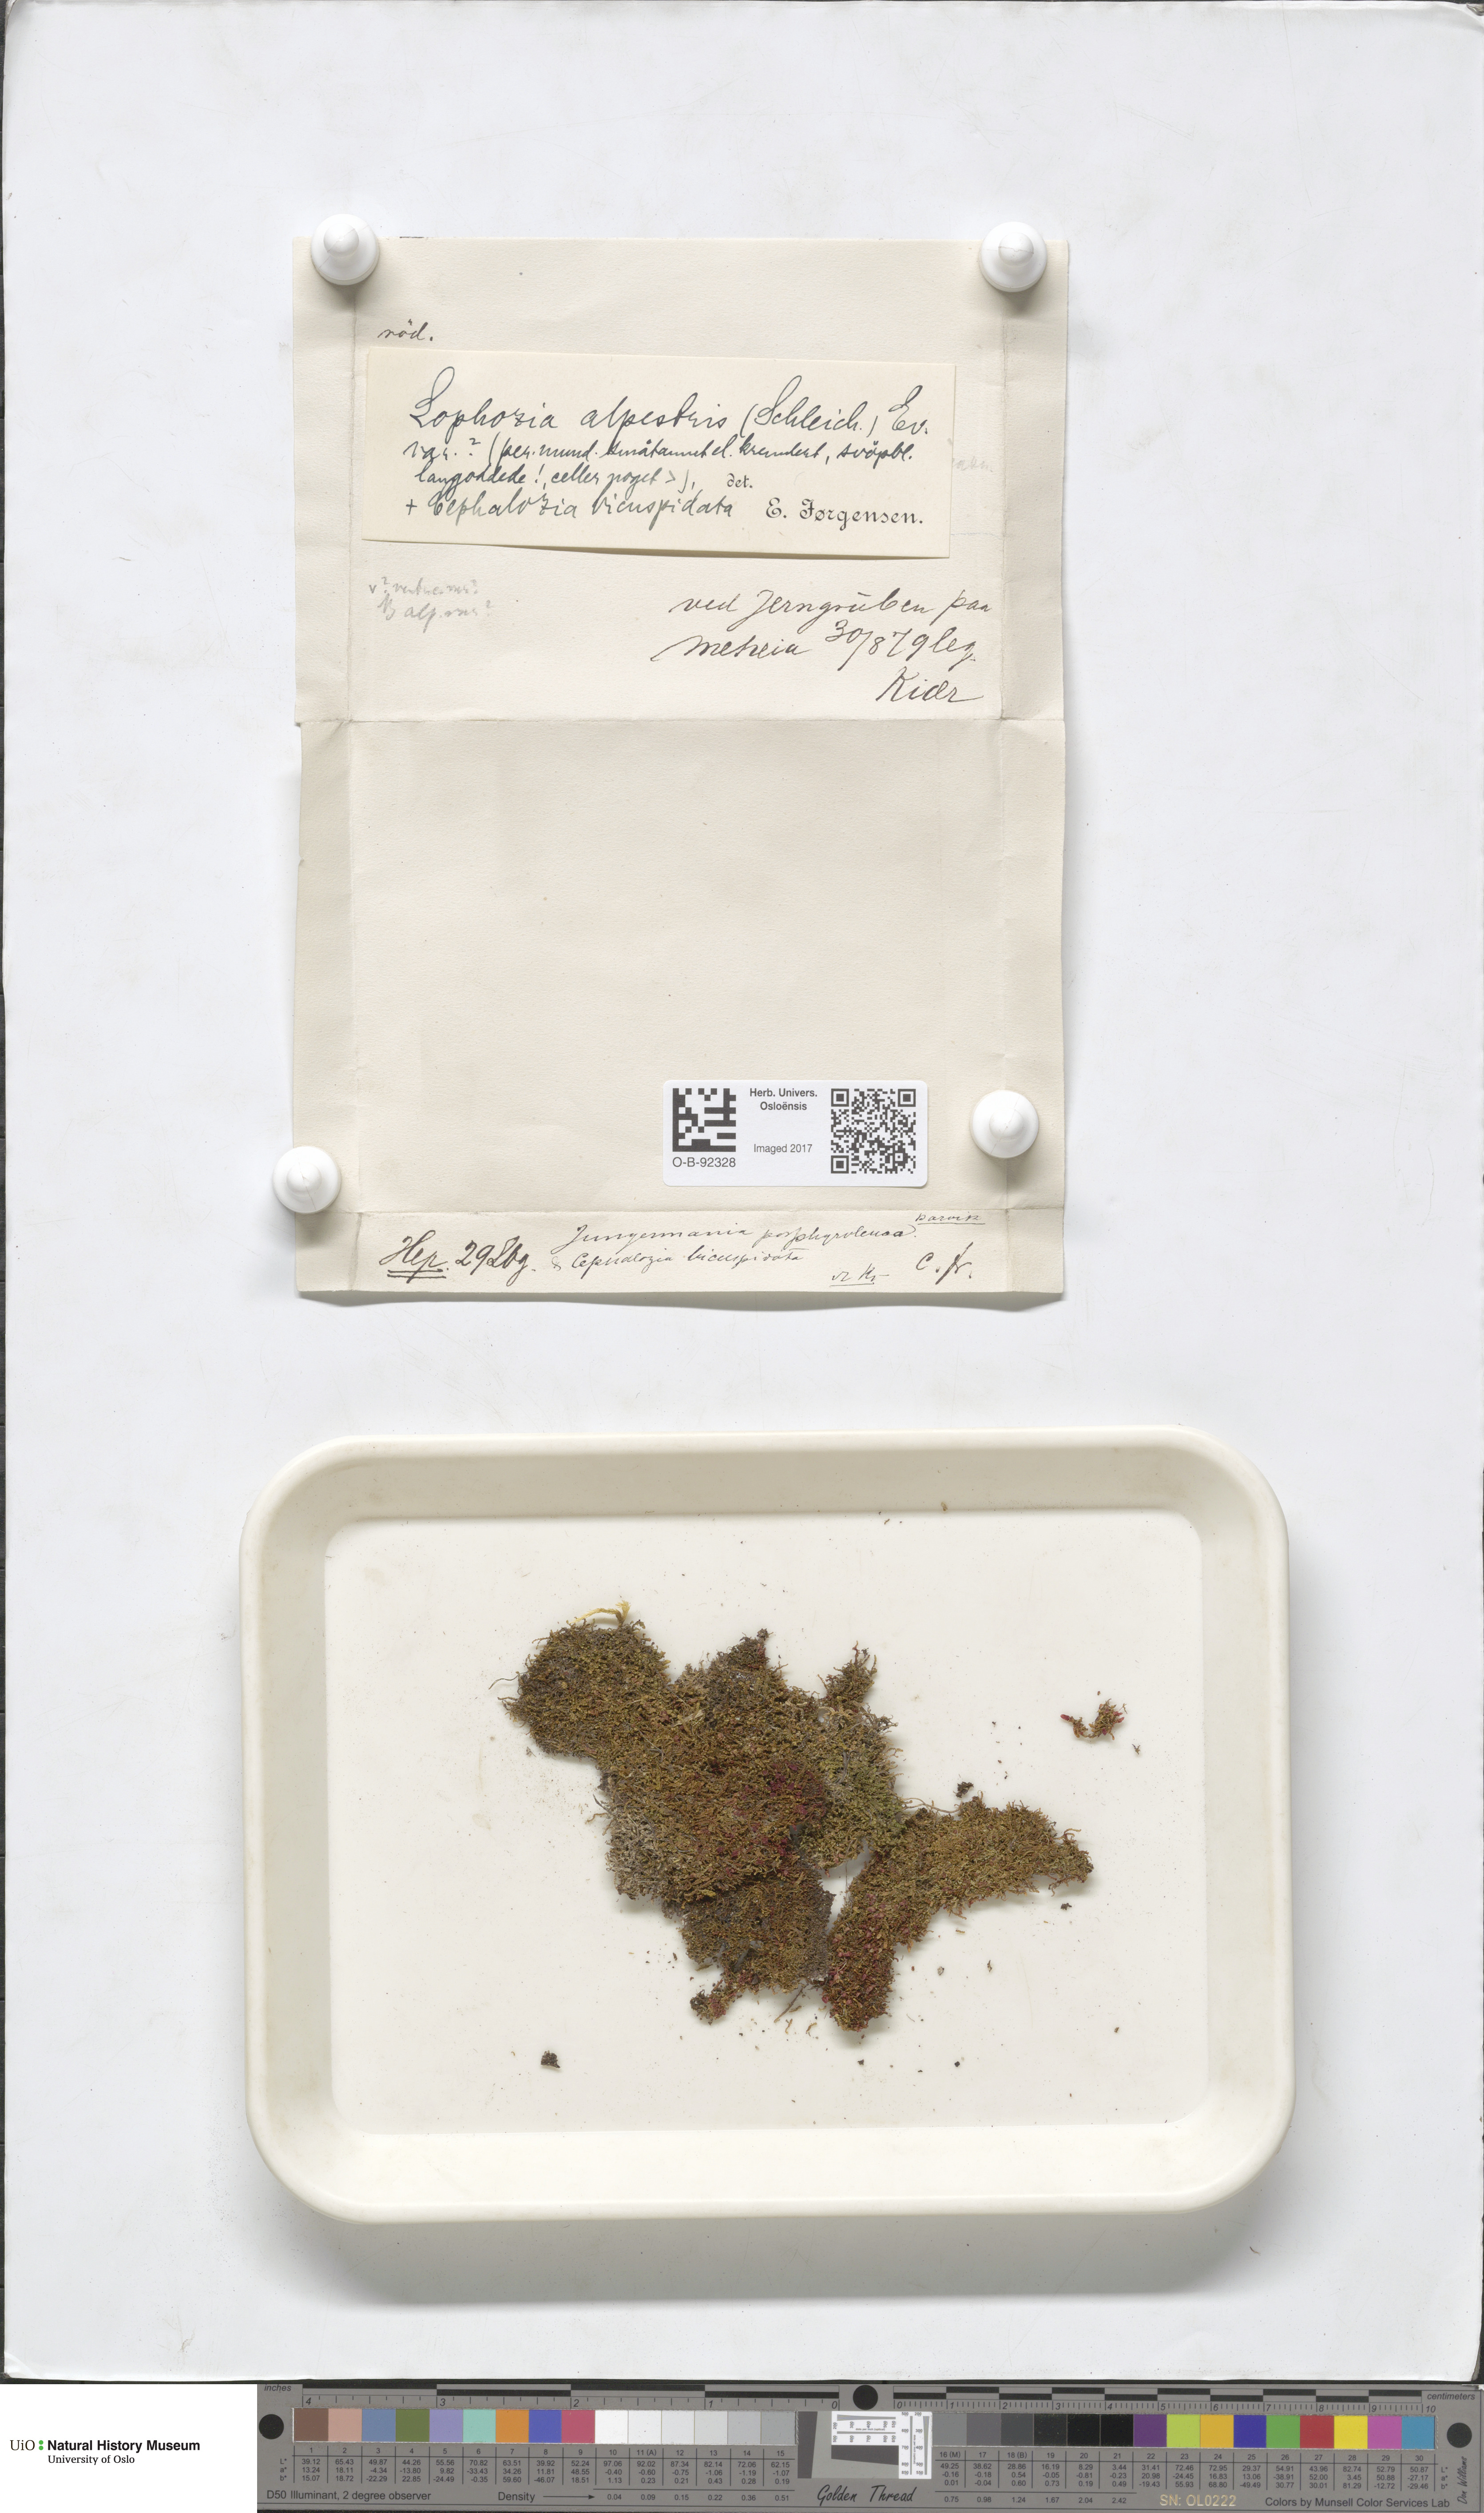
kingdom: Plantae
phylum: Marchantiophyta
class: Jungermanniopsida
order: Jungermanniales
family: Anastrophyllaceae
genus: Barbilophozia
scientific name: Barbilophozia sudetica
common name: Hill notchwort
